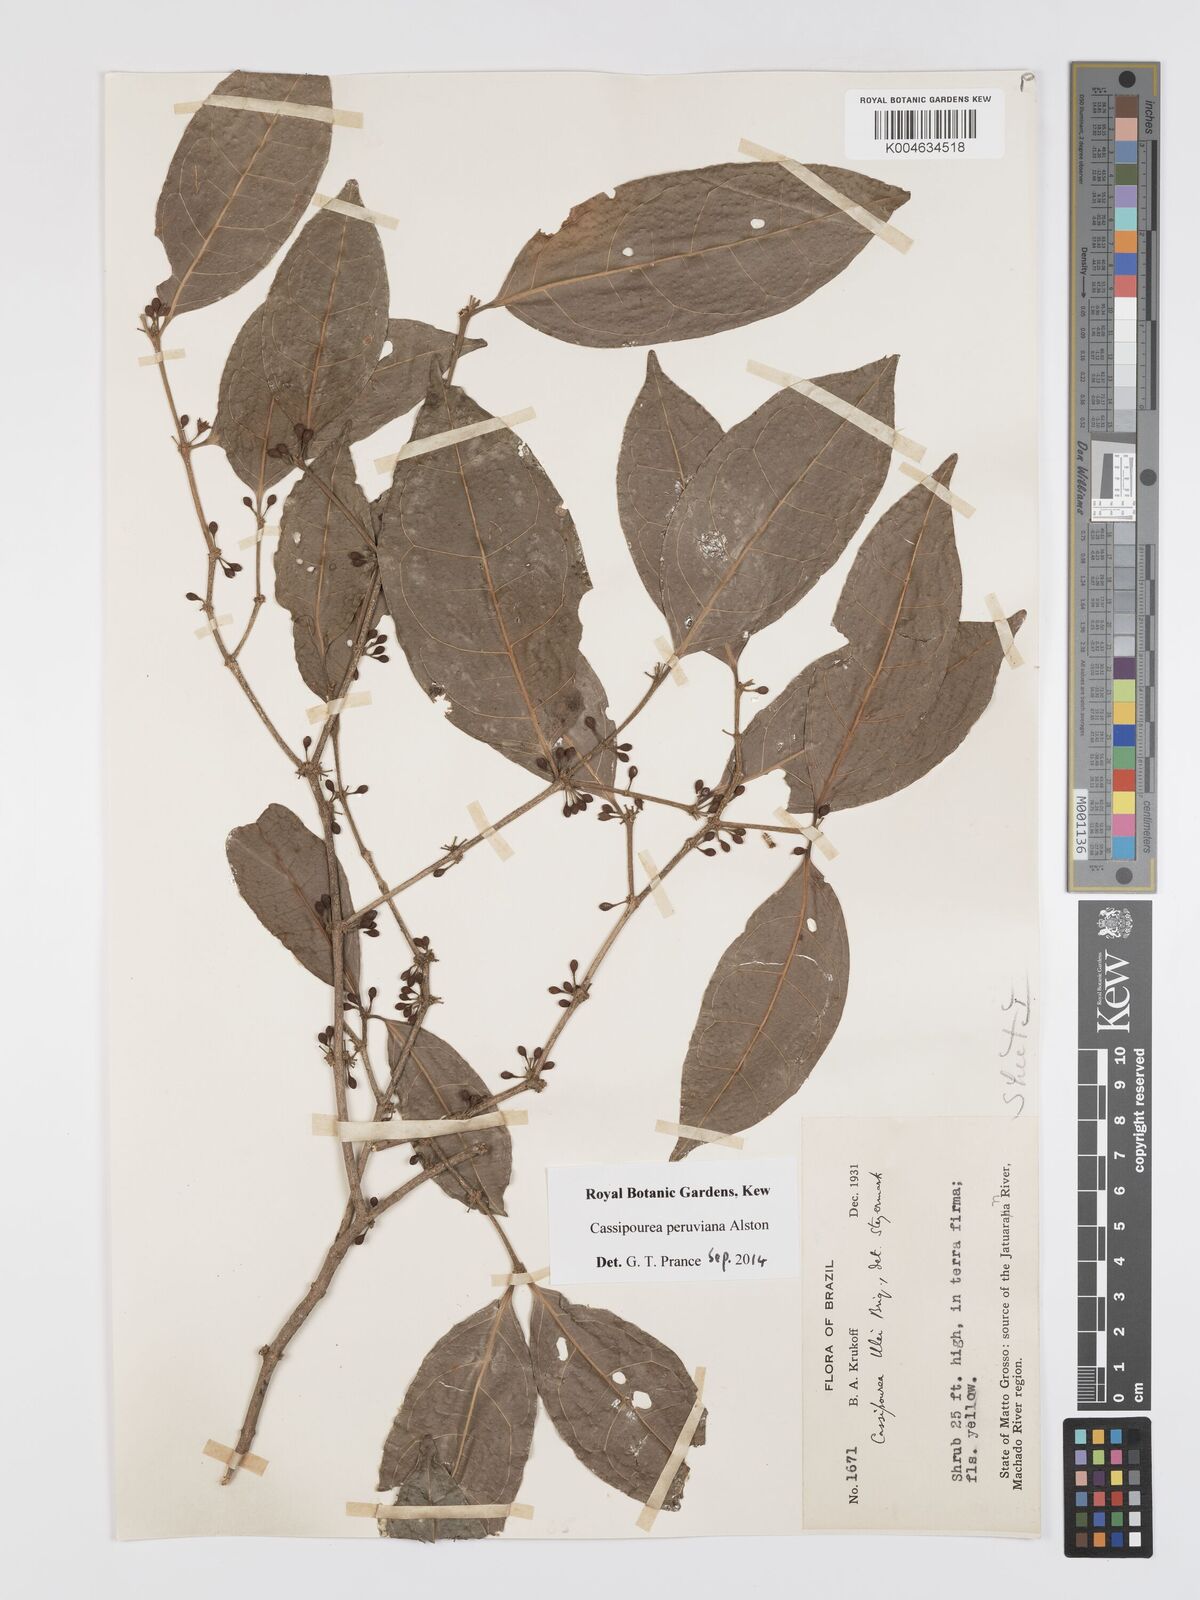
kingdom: Plantae
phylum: Tracheophyta
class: Magnoliopsida
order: Malpighiales
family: Rhizophoraceae
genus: Cassipourea
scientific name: Cassipourea peruviana
